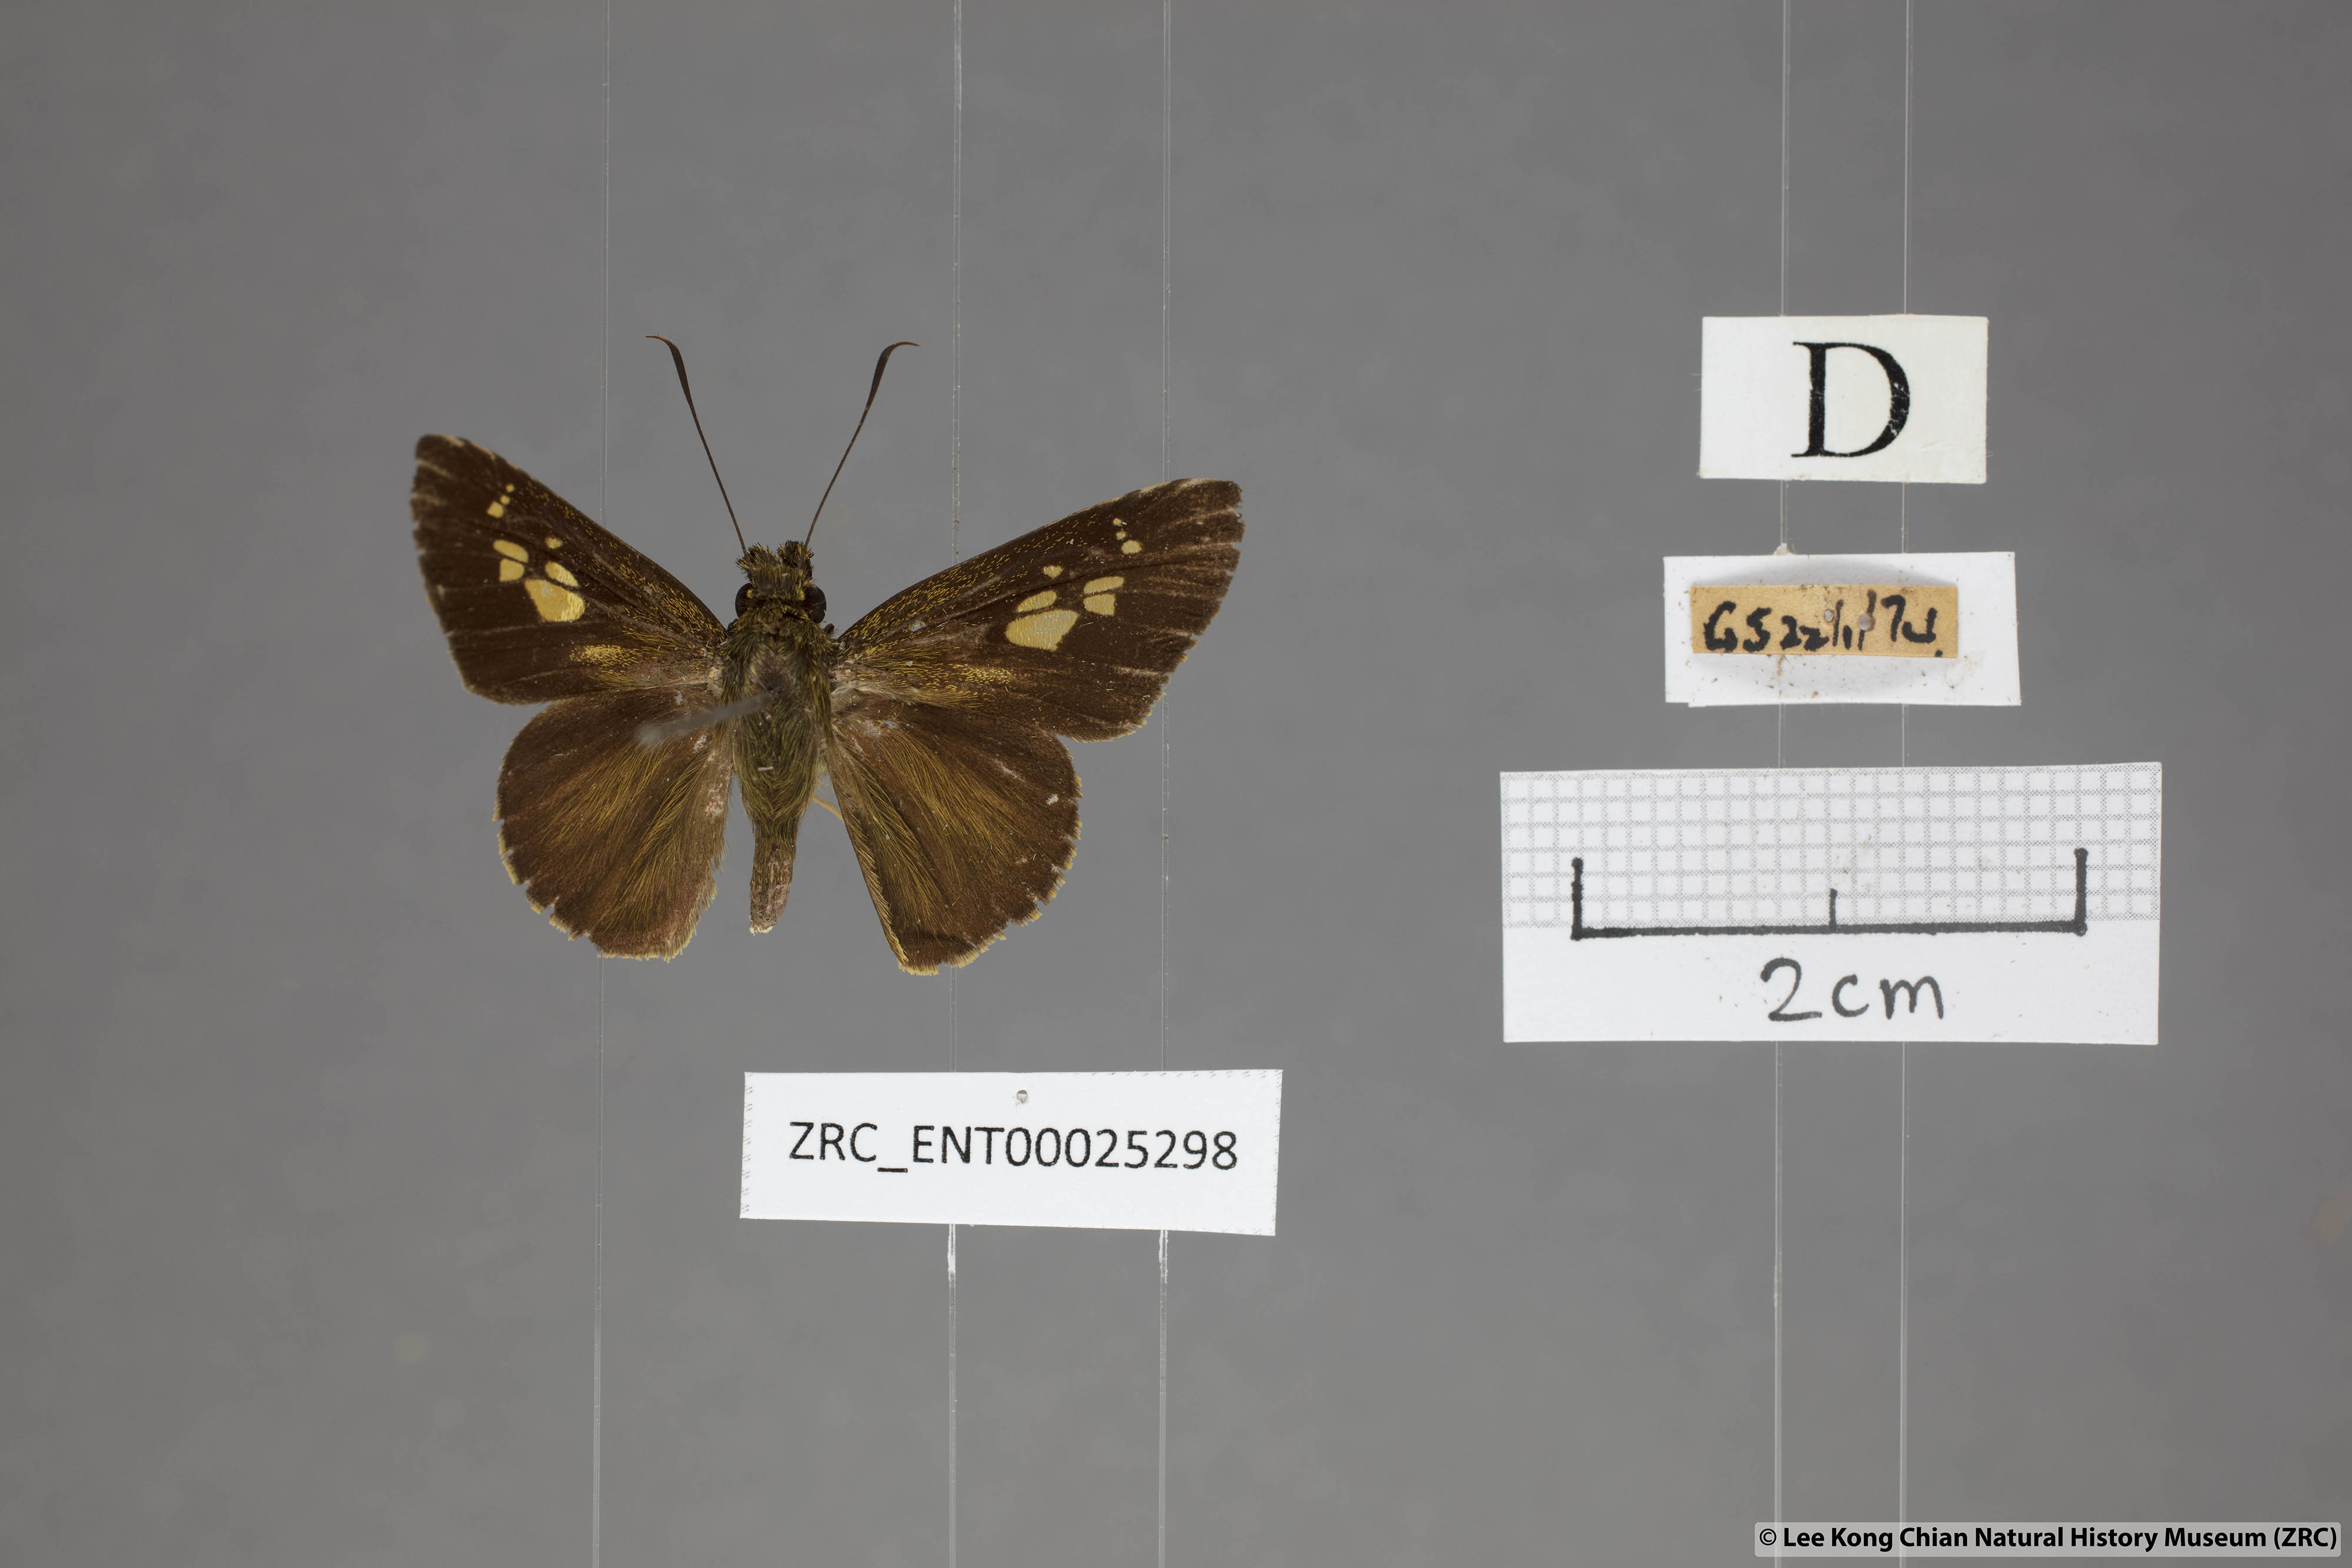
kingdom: Animalia
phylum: Arthropoda
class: Insecta
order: Lepidoptera
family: Hesperiidae
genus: Pemara
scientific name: Pemara pugnans
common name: Pugnacious lancer
